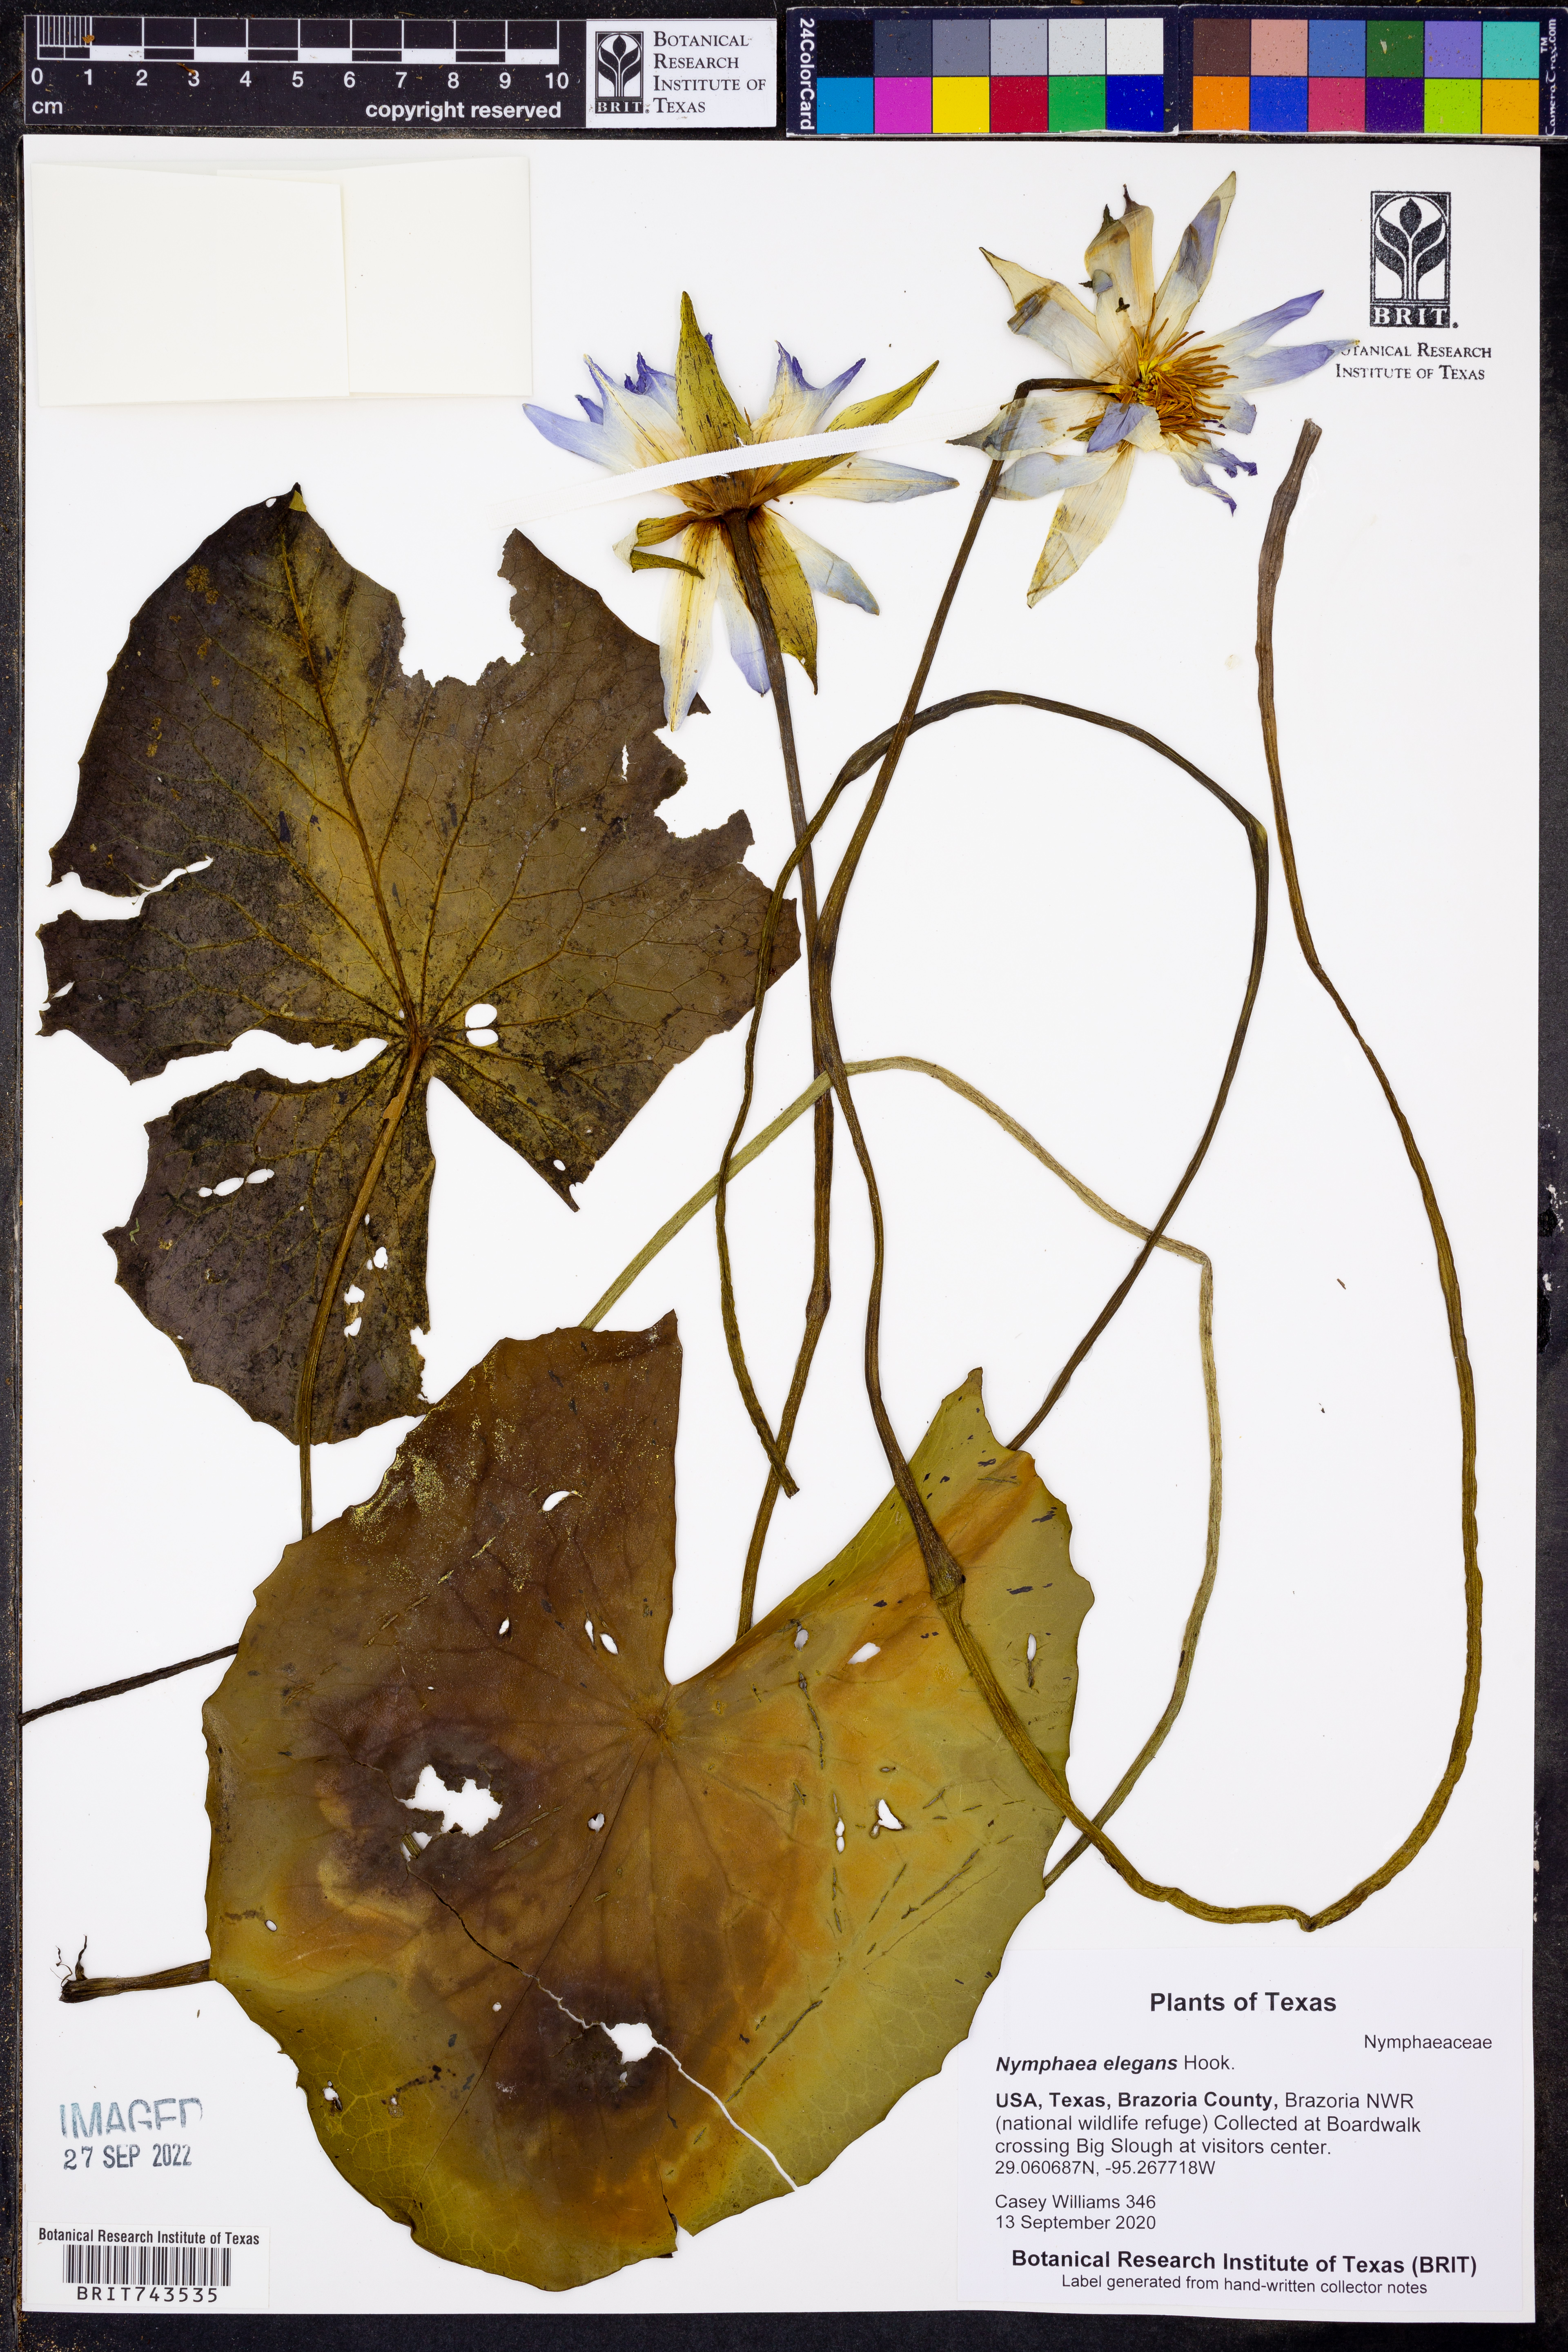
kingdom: Plantae
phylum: Tracheophyta
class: Magnoliopsida
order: Nymphaeales
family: Nymphaeaceae
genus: Nymphaea
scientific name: Nymphaea elegans
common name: Blue water-lily
